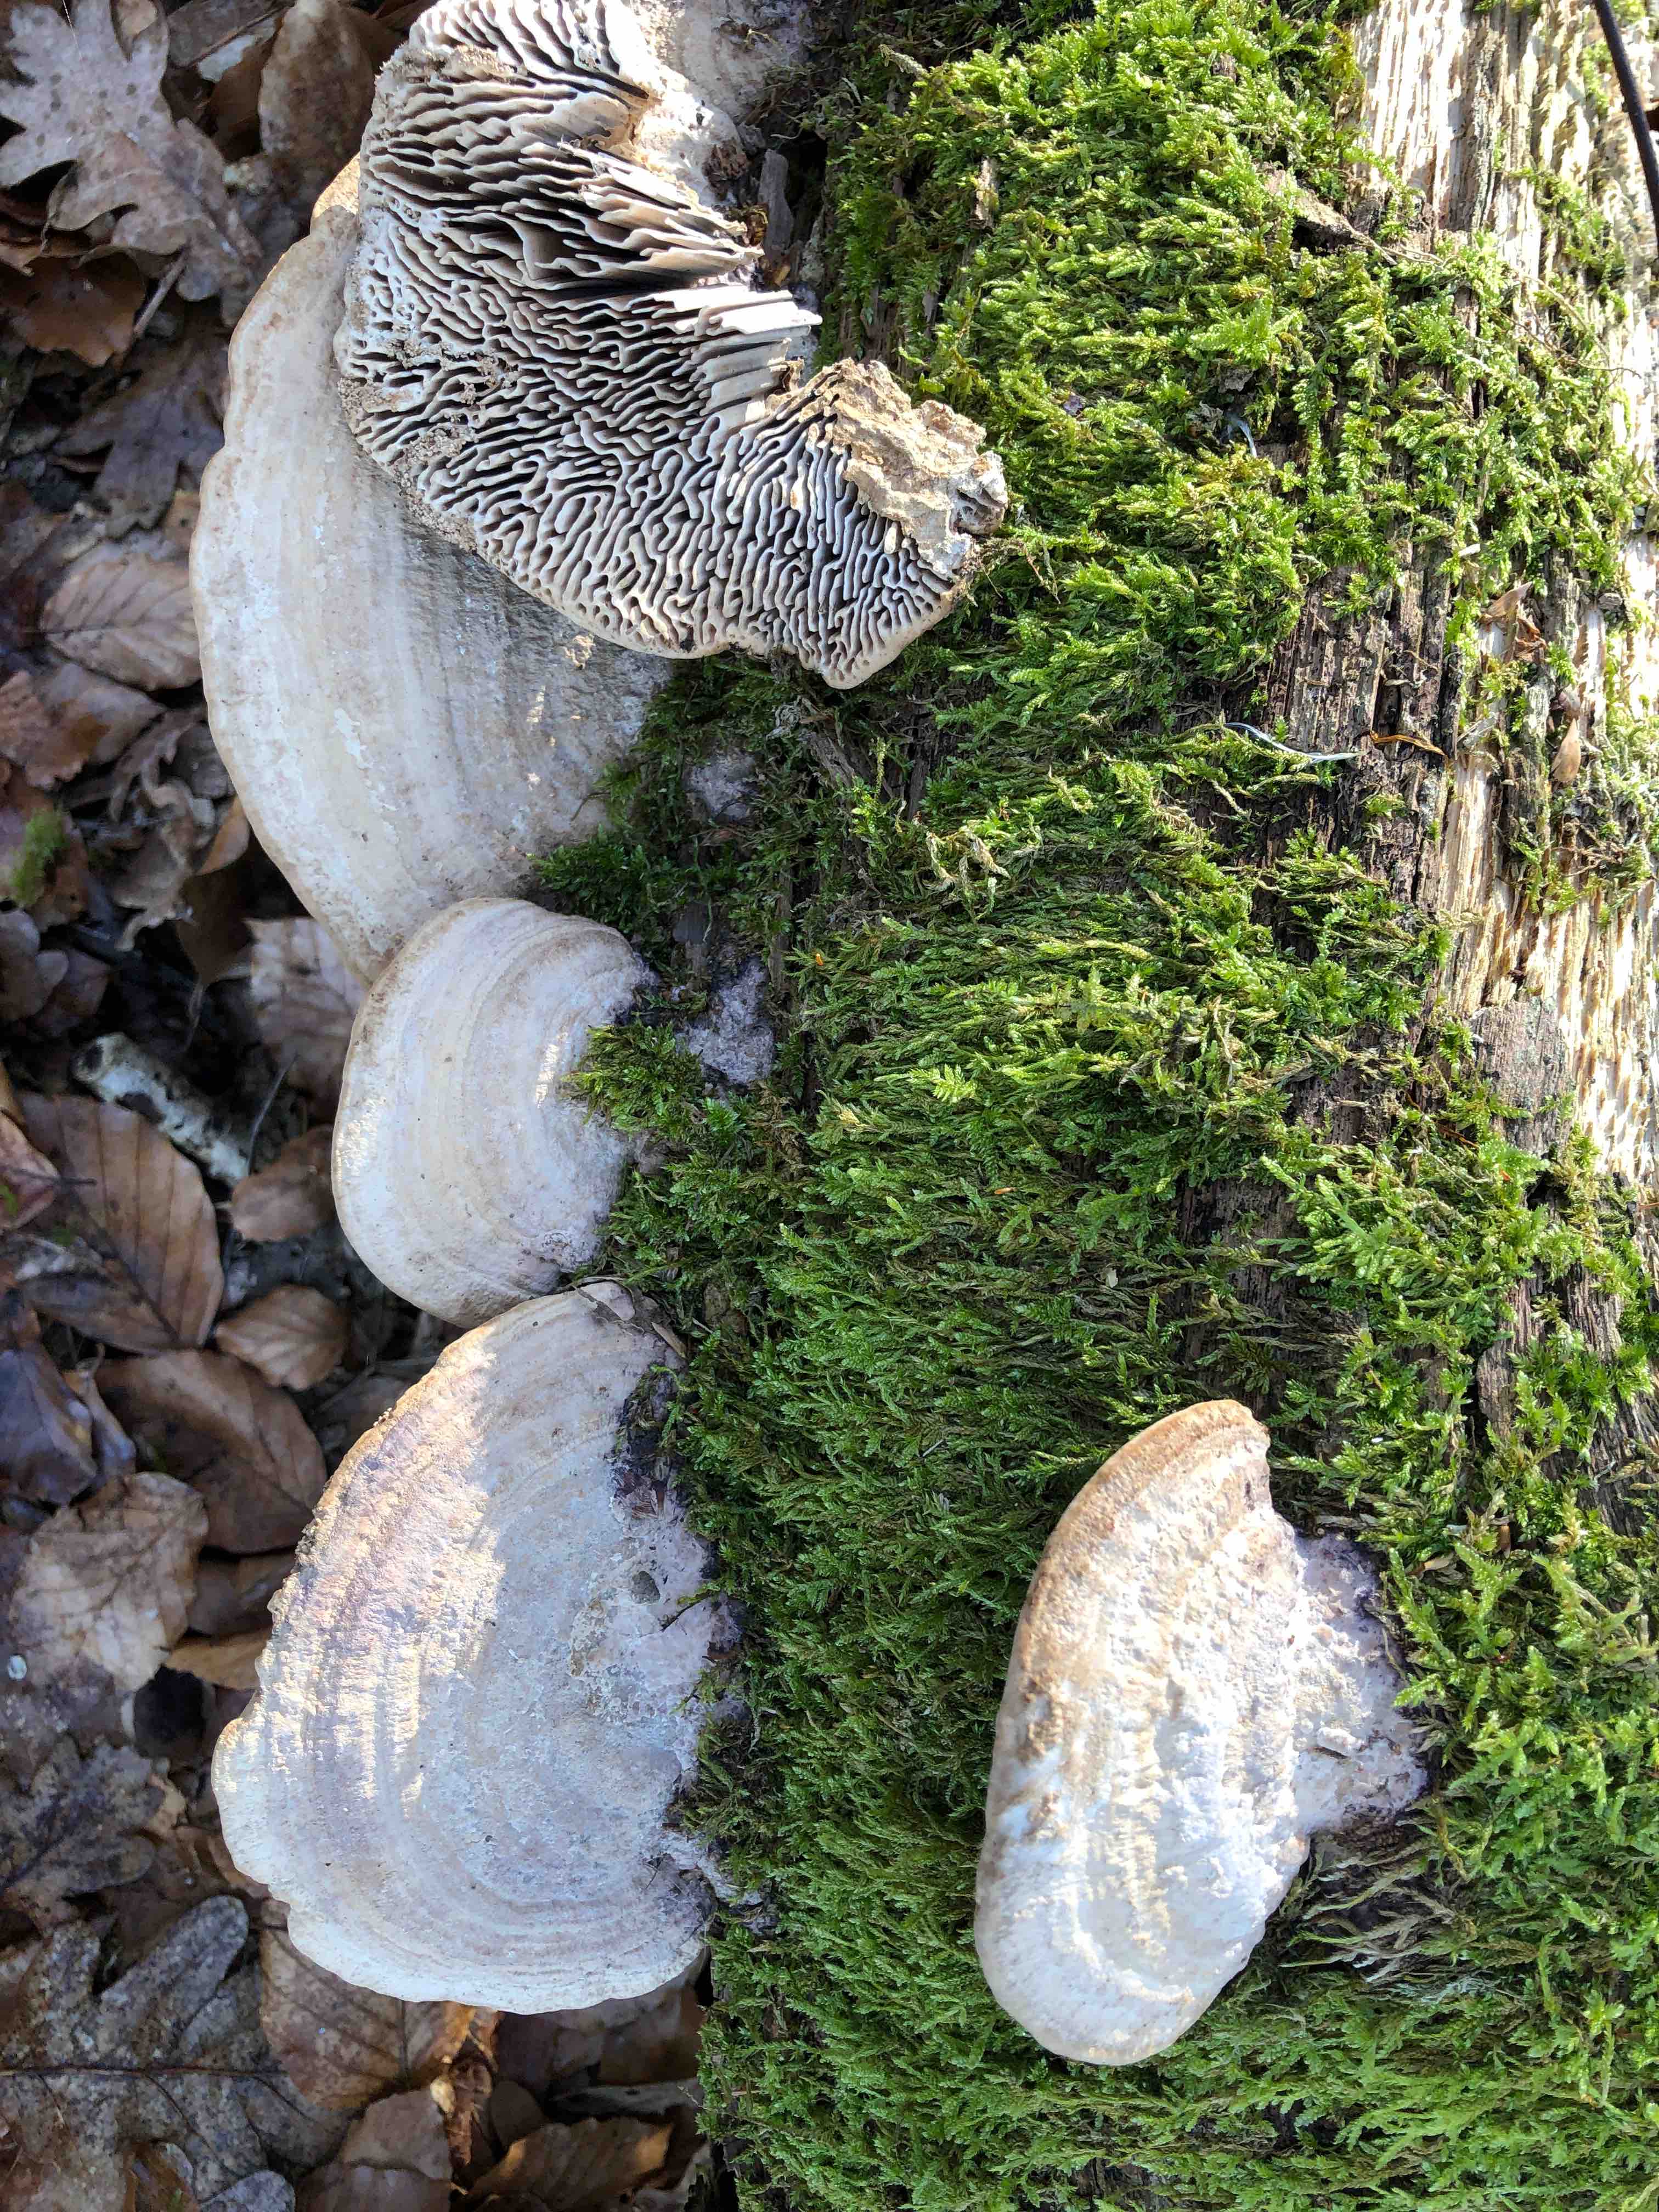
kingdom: Fungi
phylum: Basidiomycota
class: Agaricomycetes
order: Polyporales
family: Fomitopsidaceae
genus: Daedalea
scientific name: Daedalea quercina
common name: ege-labyrintsvamp
